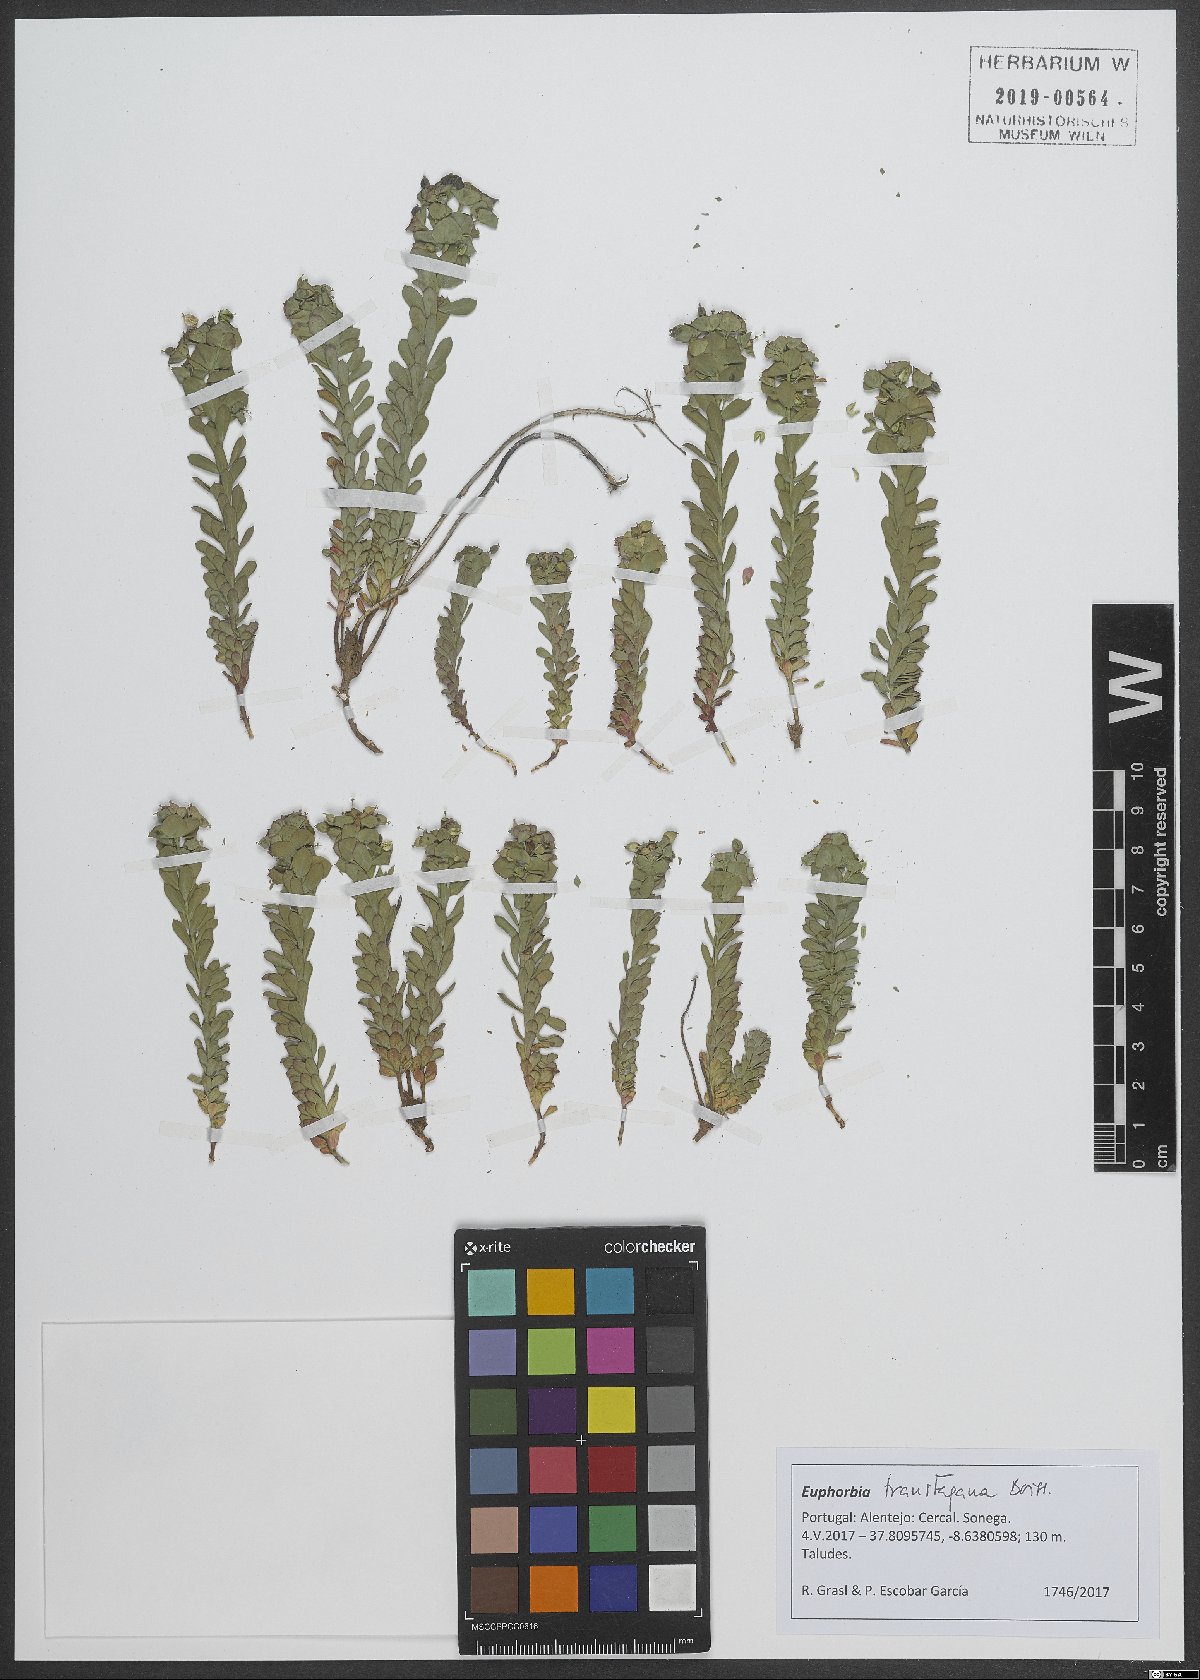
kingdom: Plantae
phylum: Tracheophyta
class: Magnoliopsida
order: Malpighiales
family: Euphorbiaceae
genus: Euphorbia
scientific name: Euphorbia transtagana
